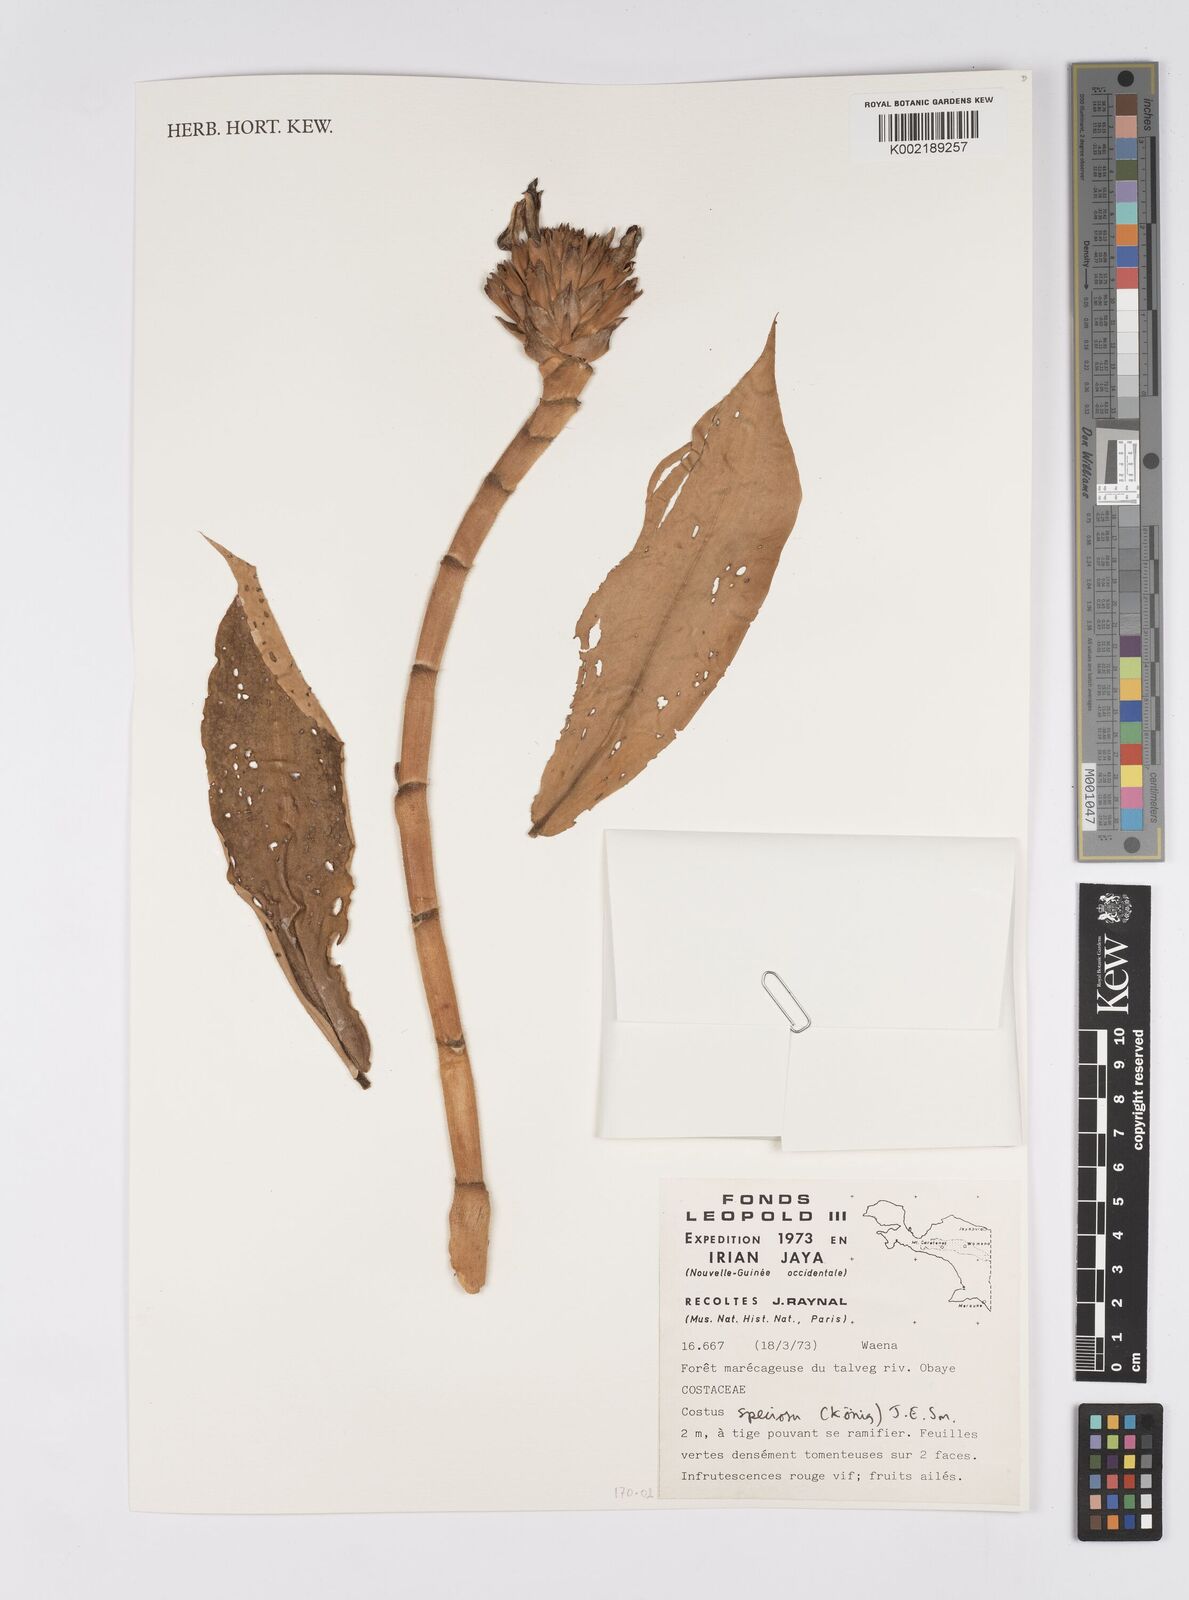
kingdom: Plantae
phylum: Tracheophyta
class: Liliopsida
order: Zingiberales
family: Costaceae
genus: Hellenia
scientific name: Hellenia speciosa
